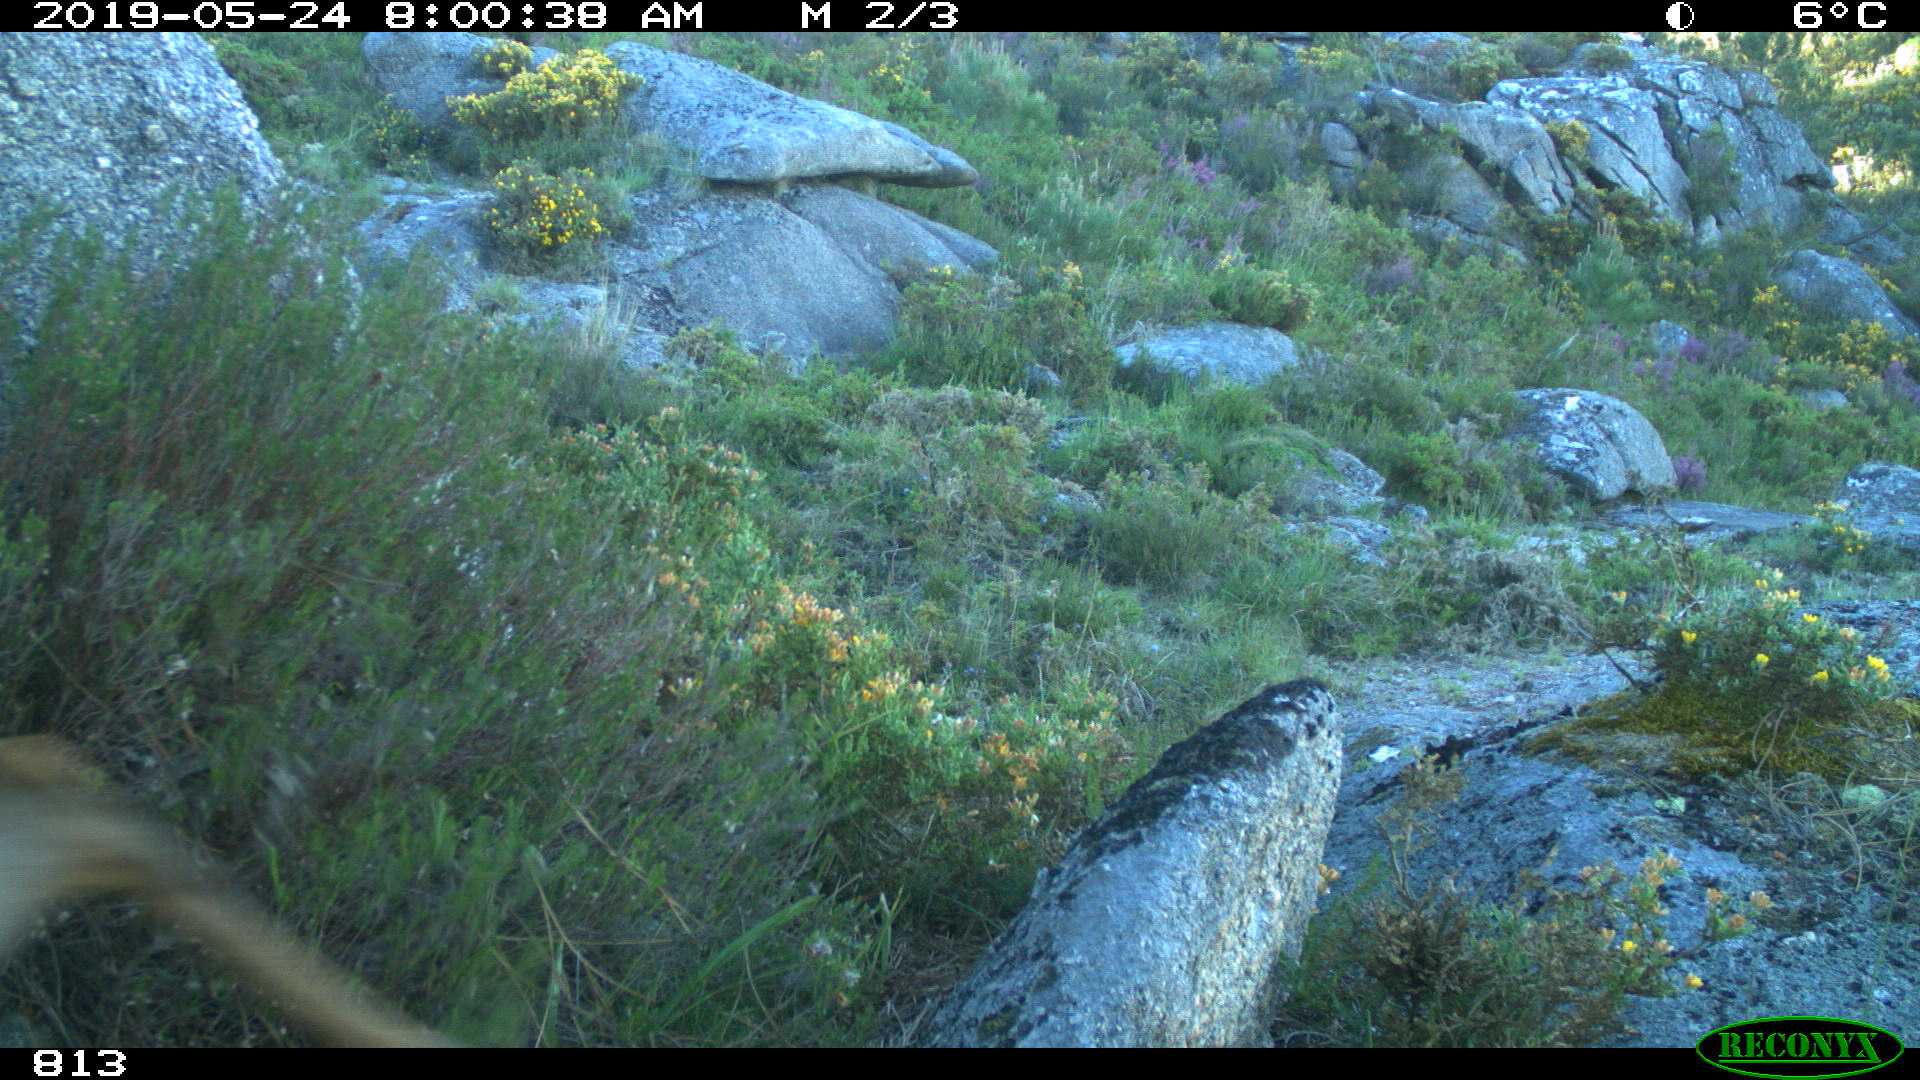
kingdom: Animalia
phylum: Chordata
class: Mammalia
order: Artiodactyla
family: Cervidae
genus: Capreolus
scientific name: Capreolus capreolus
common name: Western roe deer
